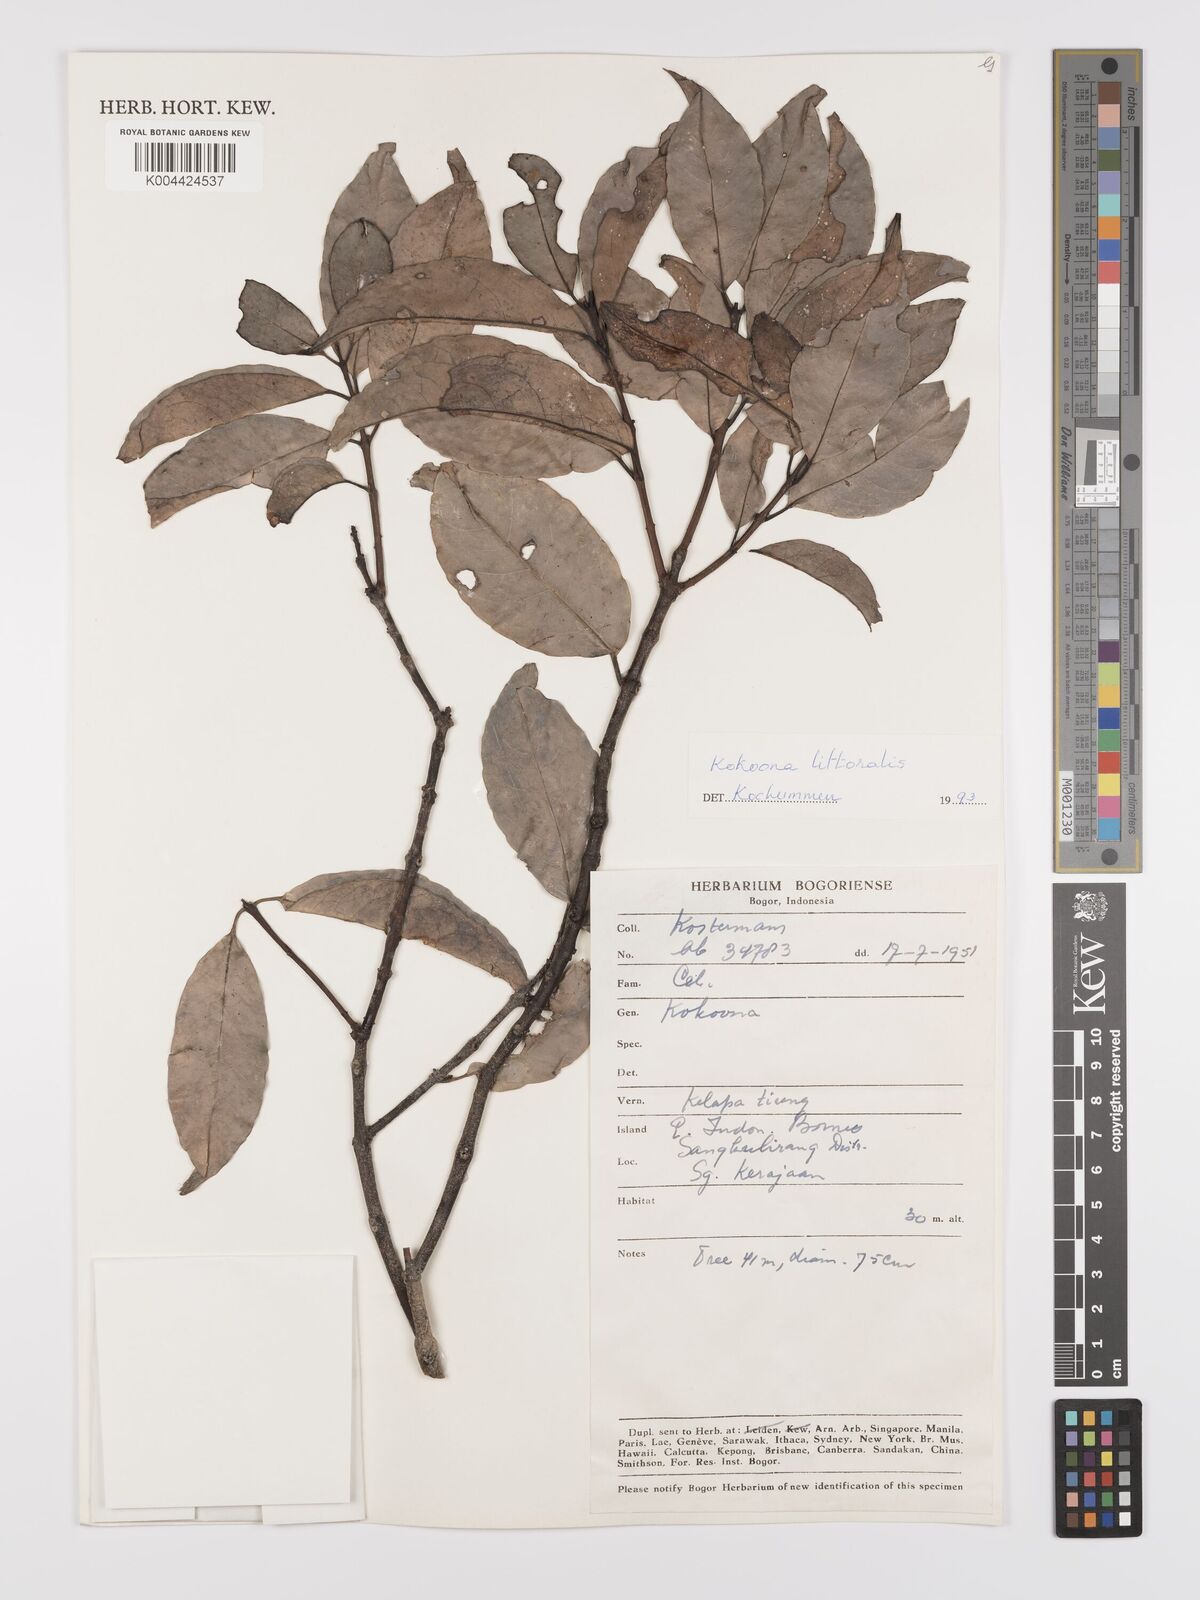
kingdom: Plantae
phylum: Tracheophyta
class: Magnoliopsida
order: Celastrales
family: Celastraceae
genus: Kokoona
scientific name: Kokoona littoralis
